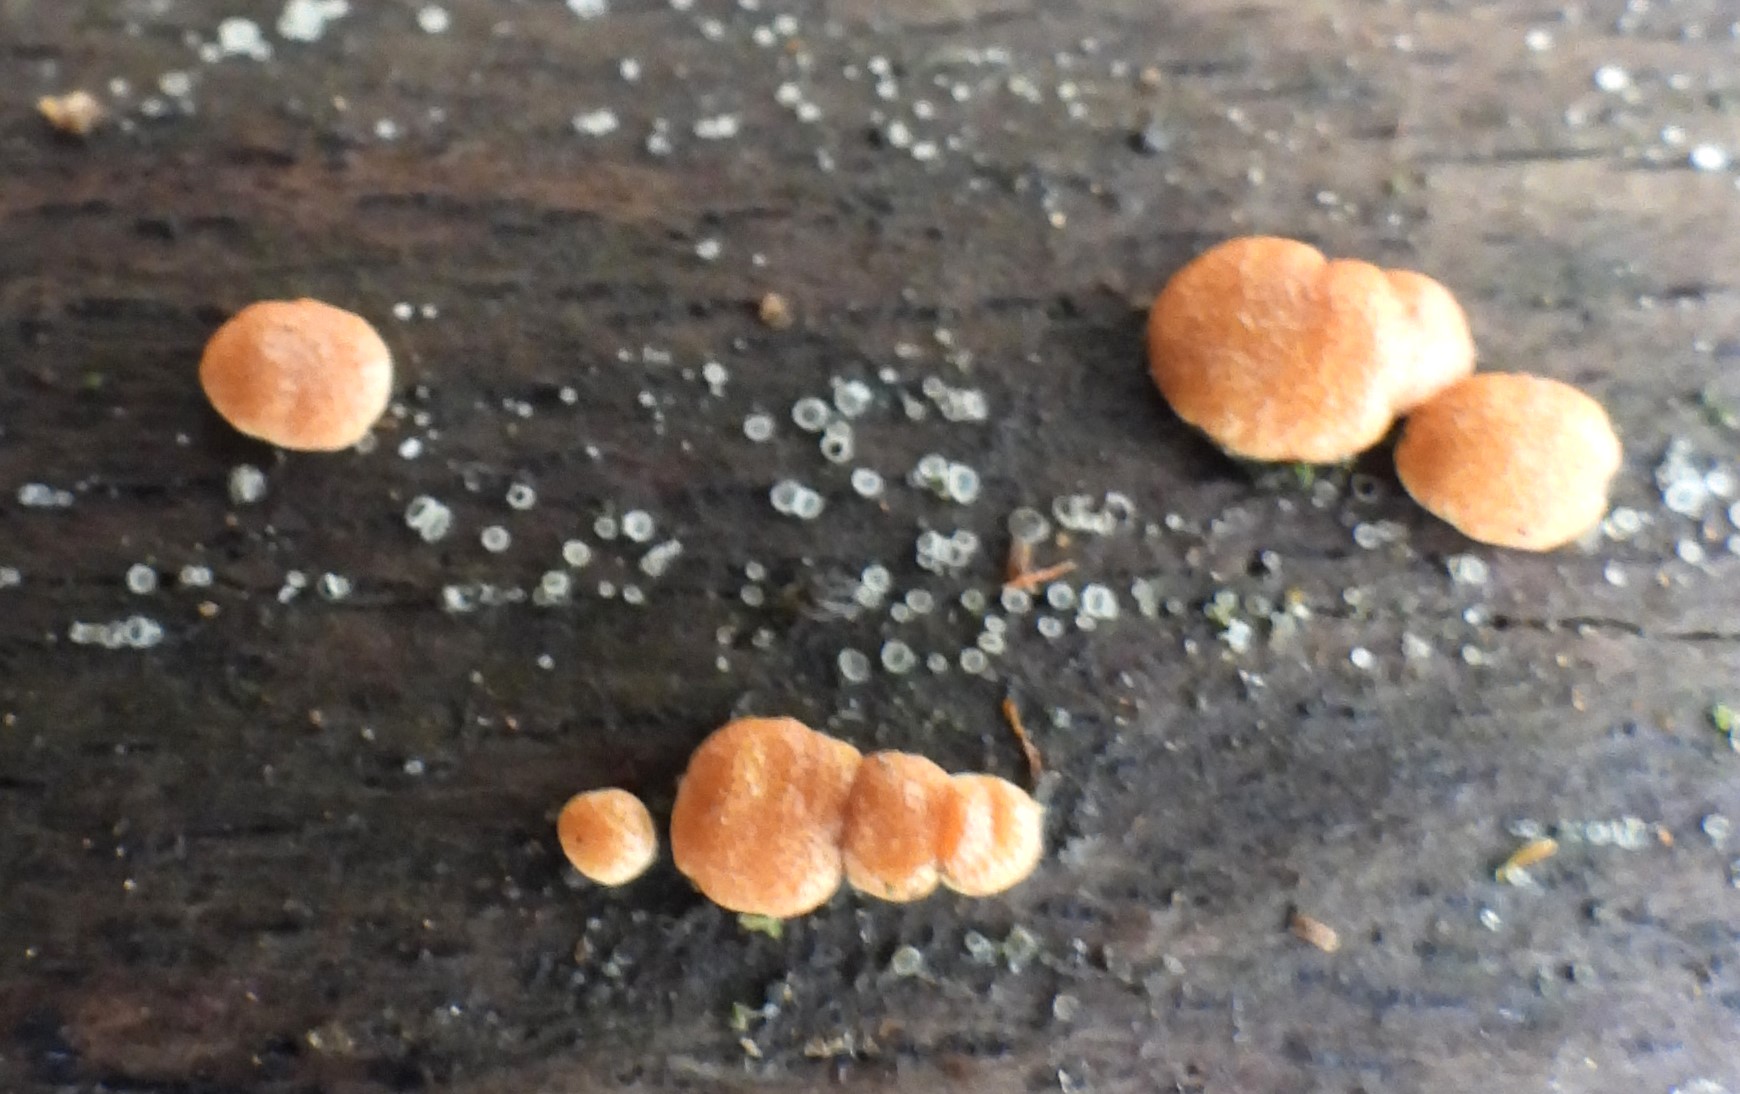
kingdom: Fungi
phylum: Ascomycota
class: Sordariomycetes
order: Hypocreales
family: Hypocreaceae
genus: Trichoderma
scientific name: Trichoderma europaeum
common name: rosabrun kødkerne
